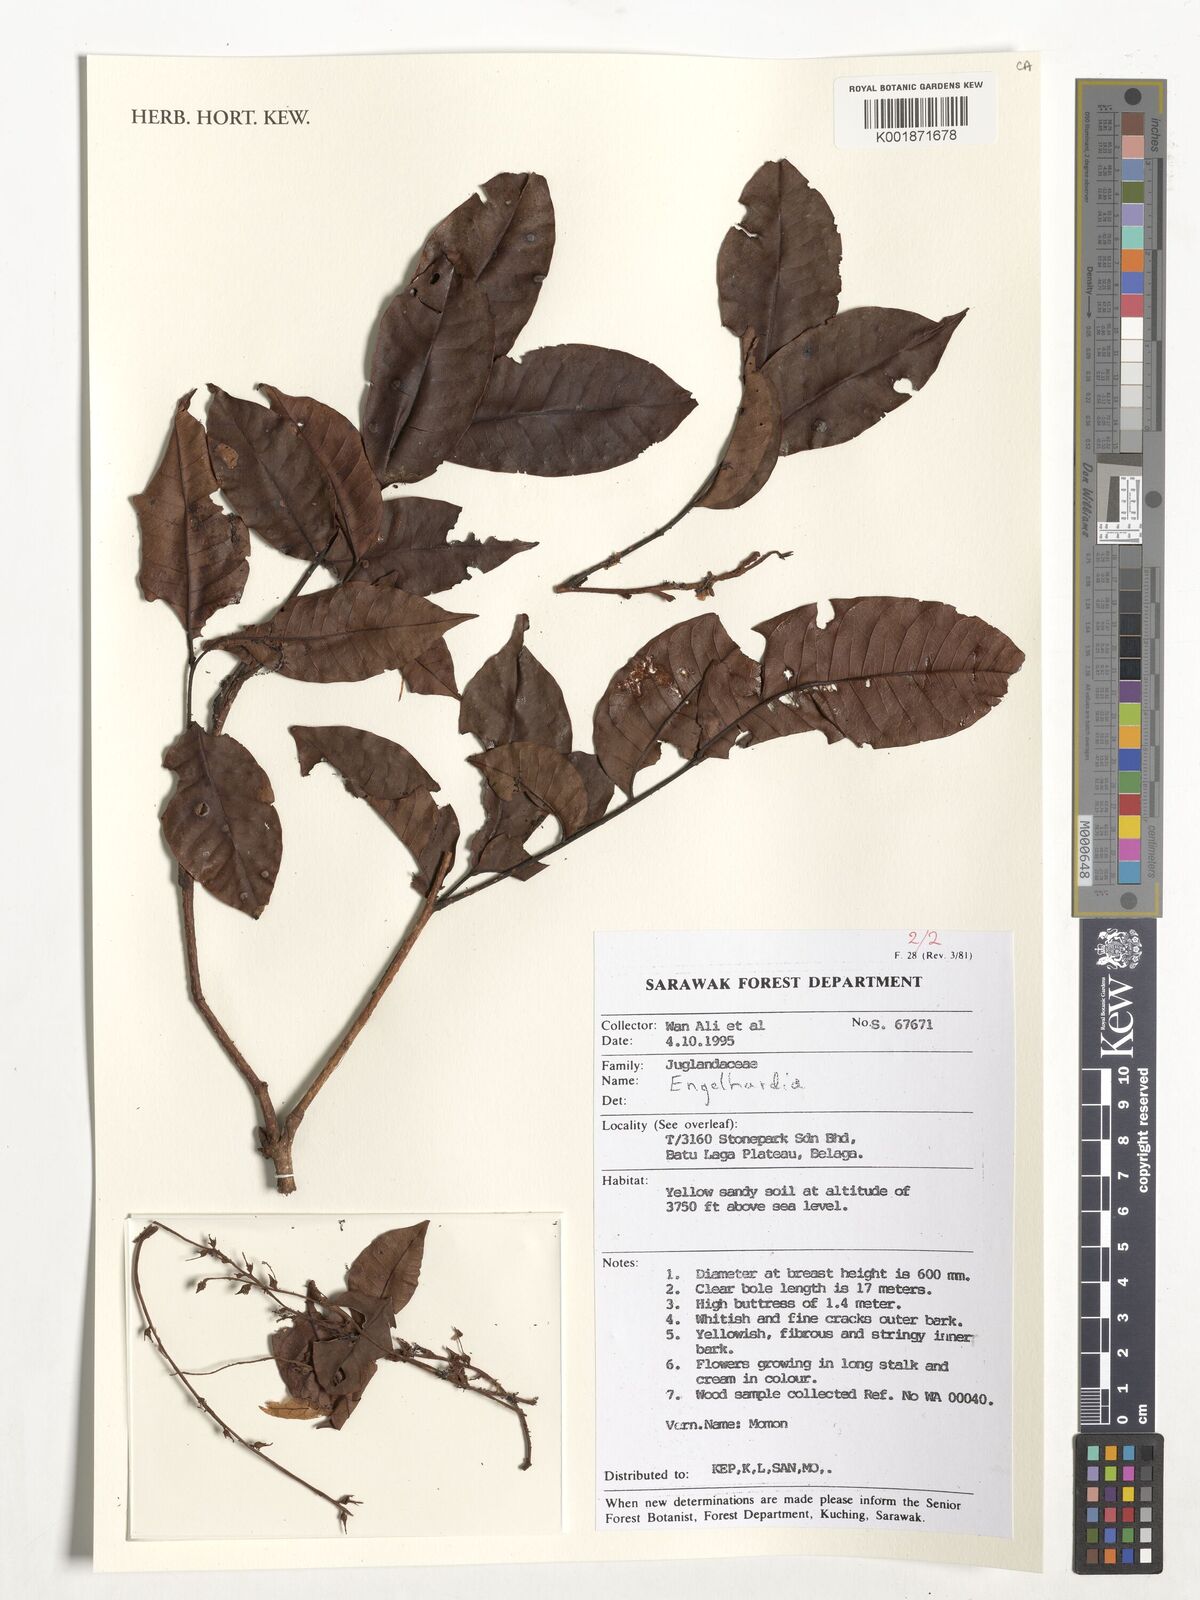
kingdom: Plantae
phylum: Tracheophyta
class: Magnoliopsida
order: Fagales
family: Juglandaceae
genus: Engelhardia
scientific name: Engelhardia
